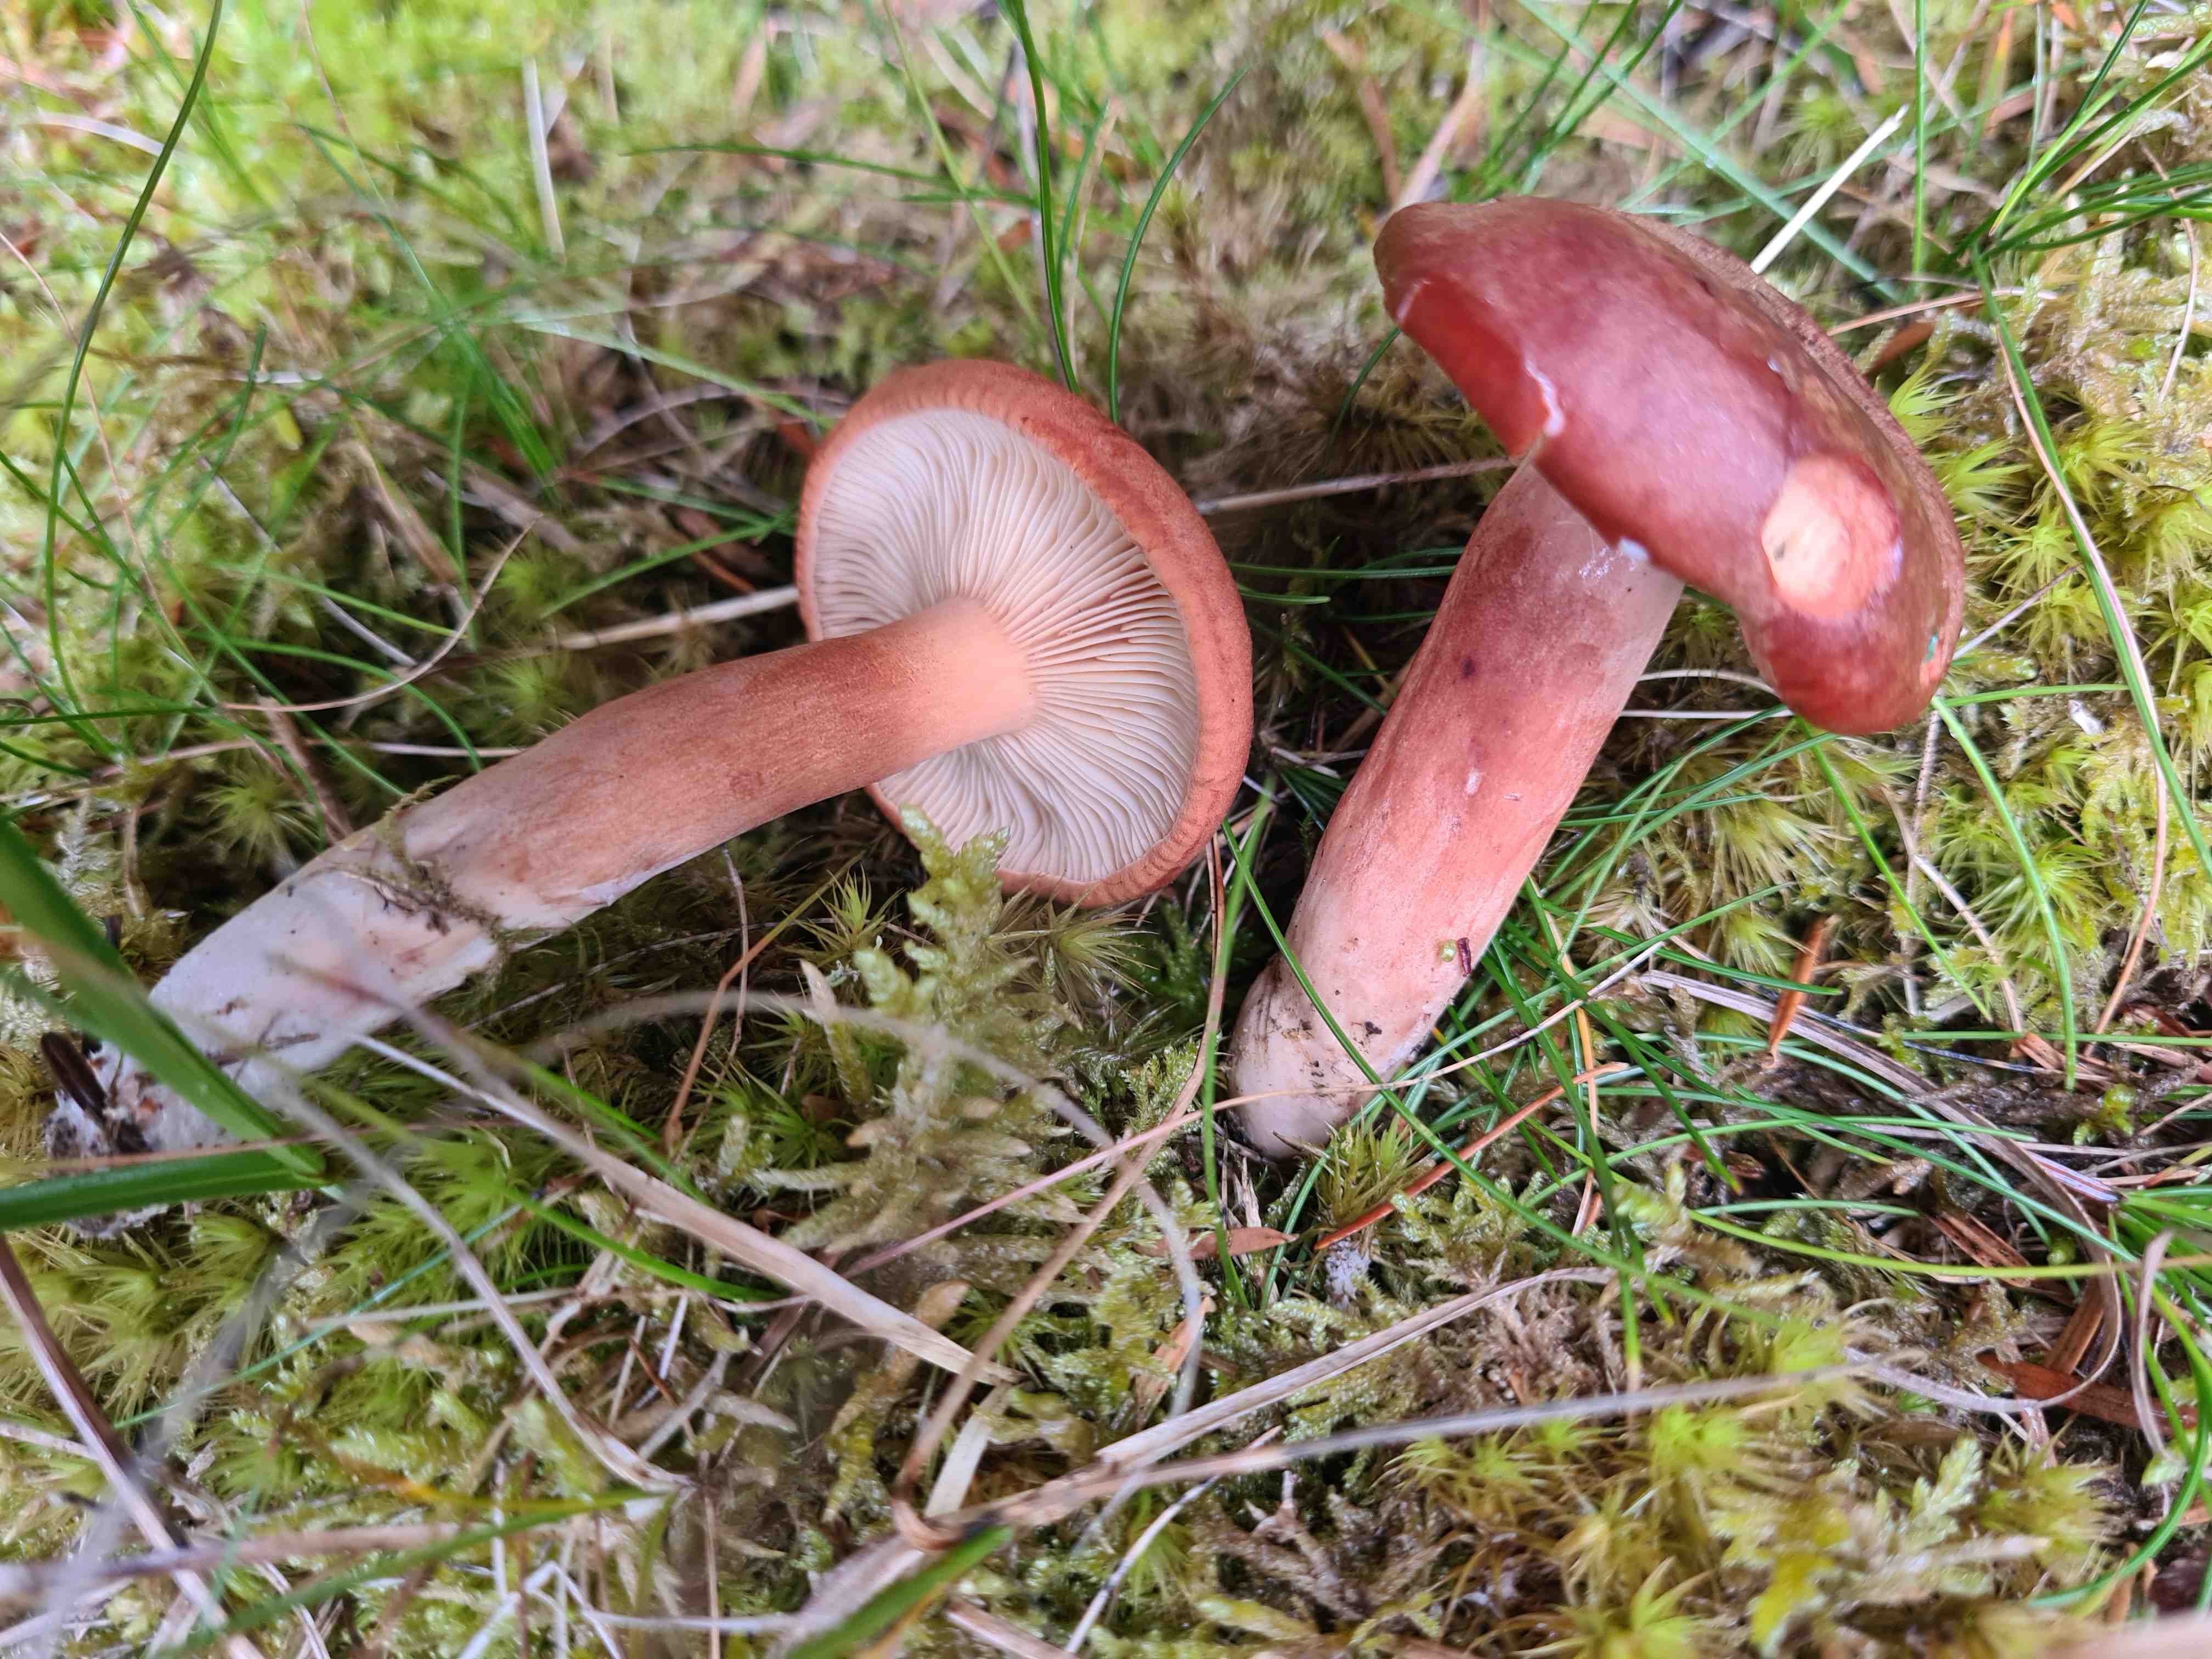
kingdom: Fungi
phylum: Basidiomycota
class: Agaricomycetes
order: Russulales
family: Russulaceae
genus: Lactarius
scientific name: Lactarius rufus
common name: rødbrun mælkehat
